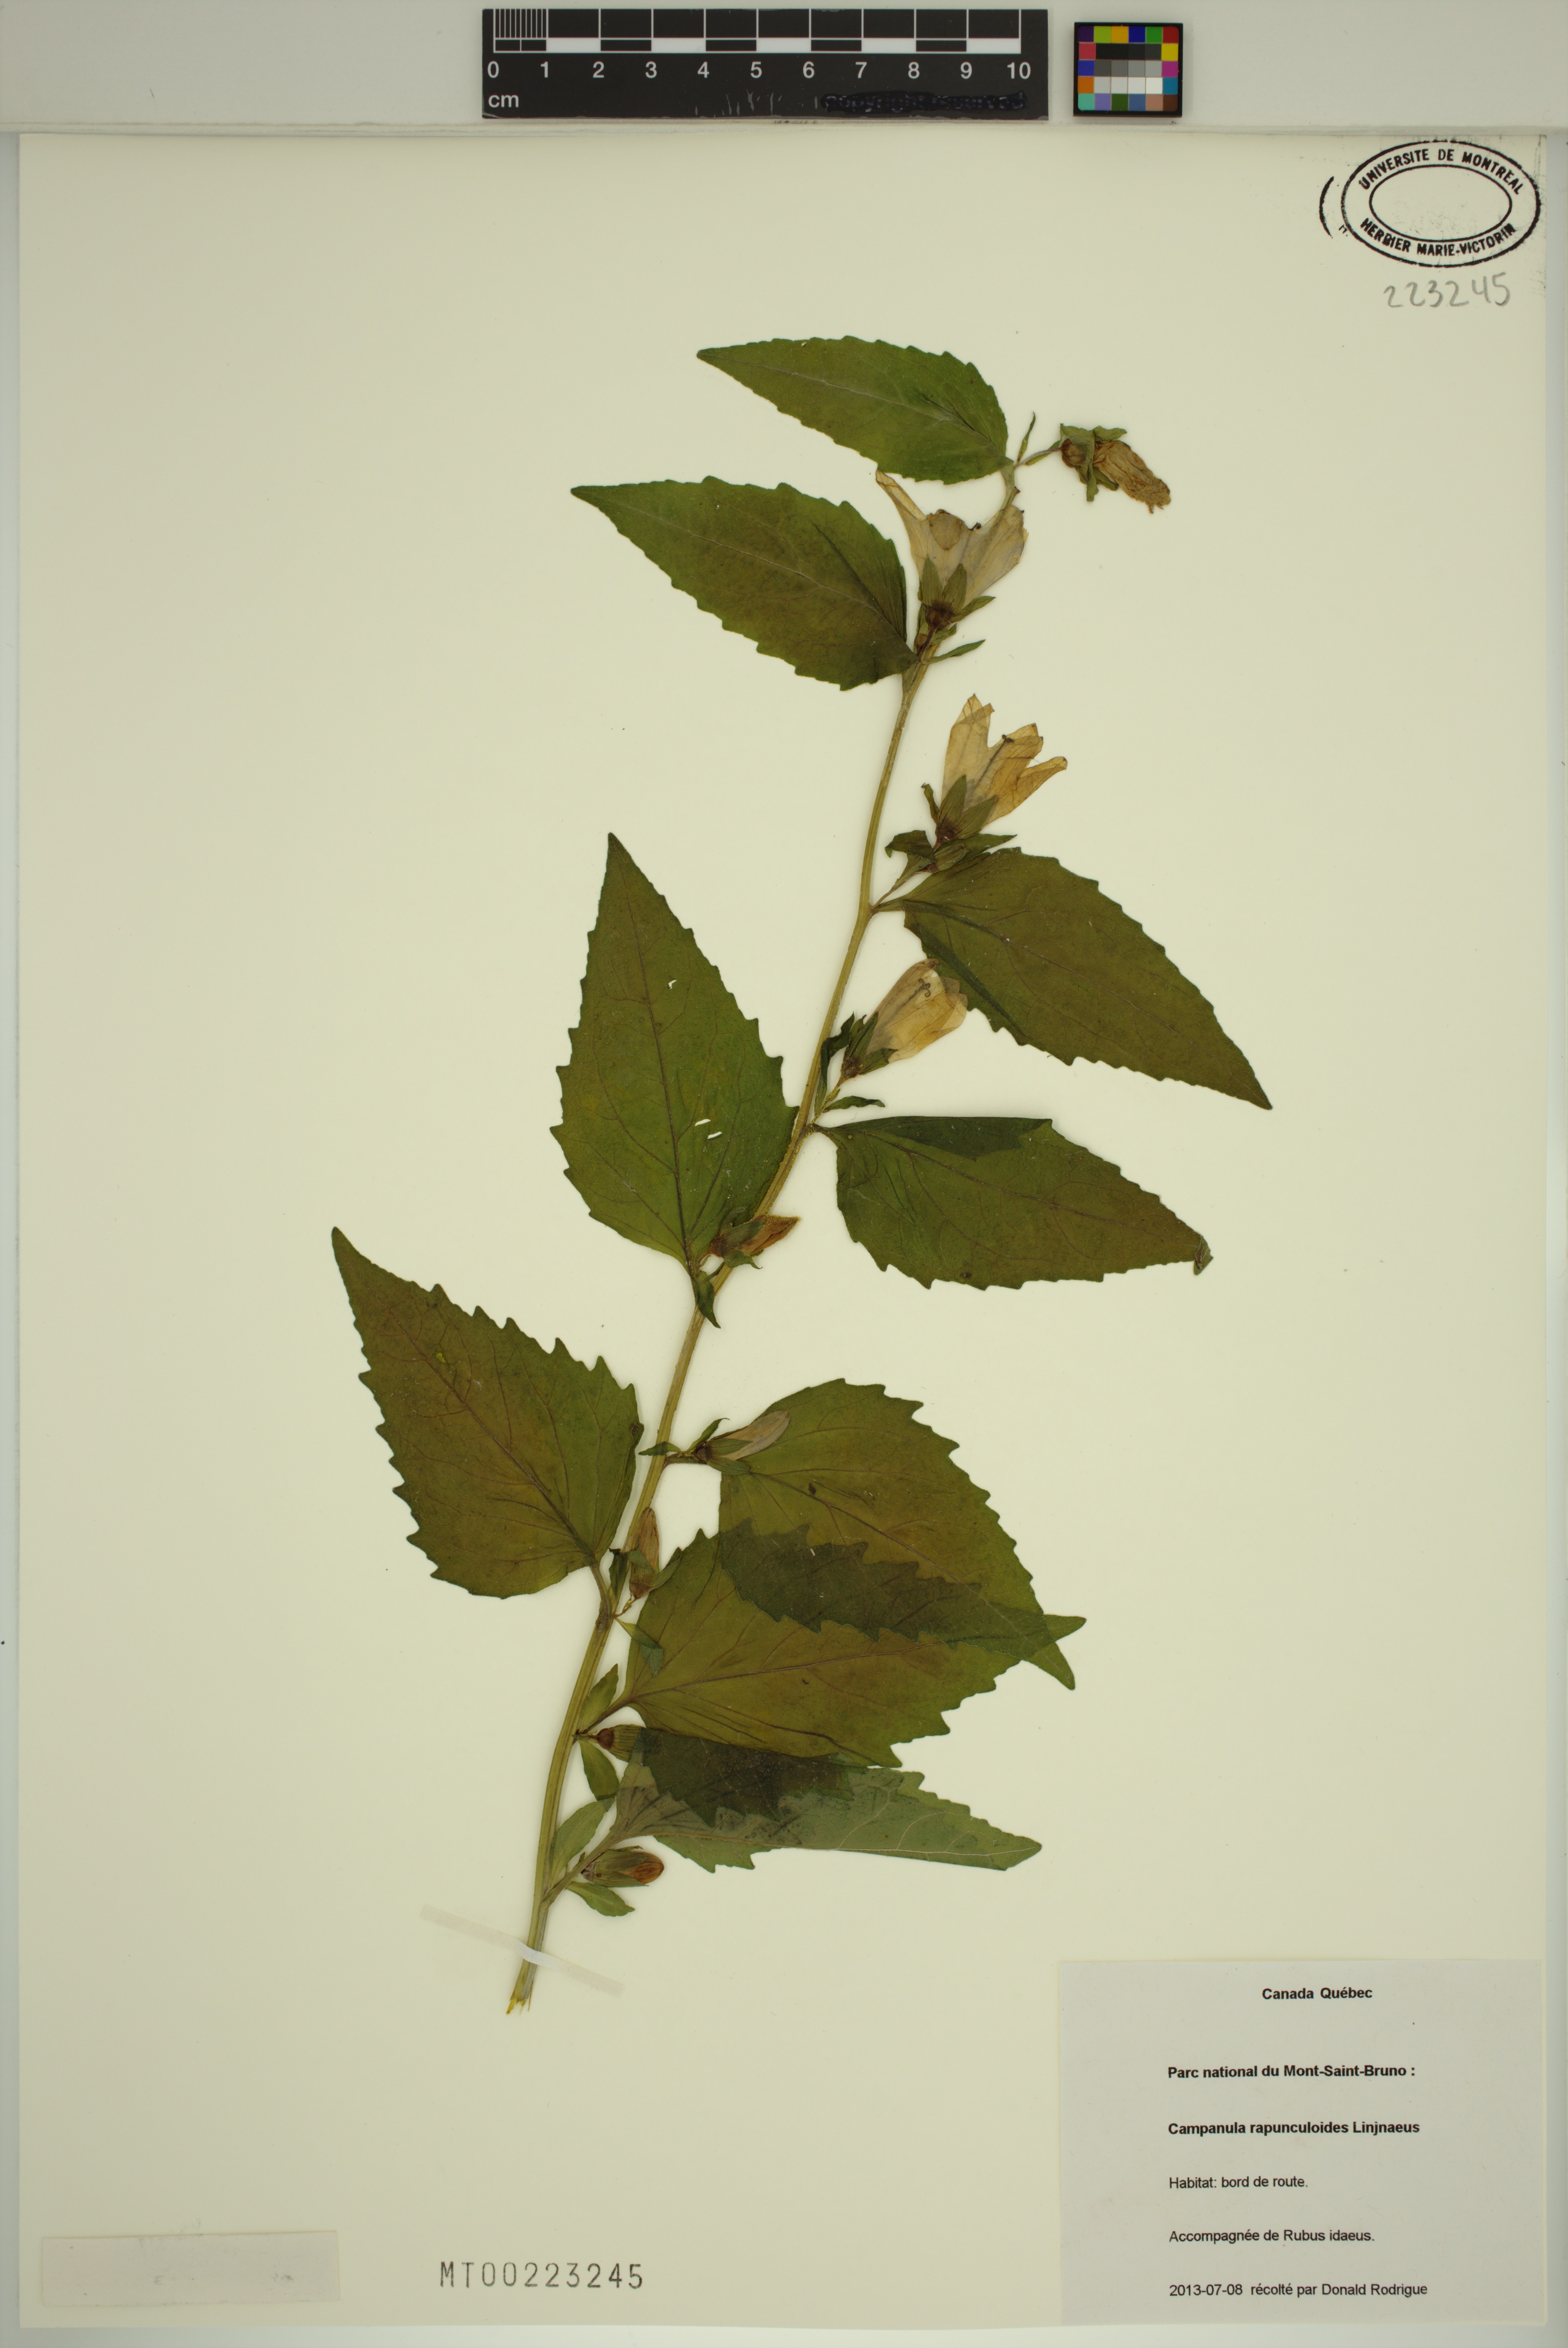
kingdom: Plantae
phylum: Tracheophyta
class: Magnoliopsida
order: Asterales
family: Campanulaceae
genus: Campanula
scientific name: Campanula rapunculoides
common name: Creeping bellflower
